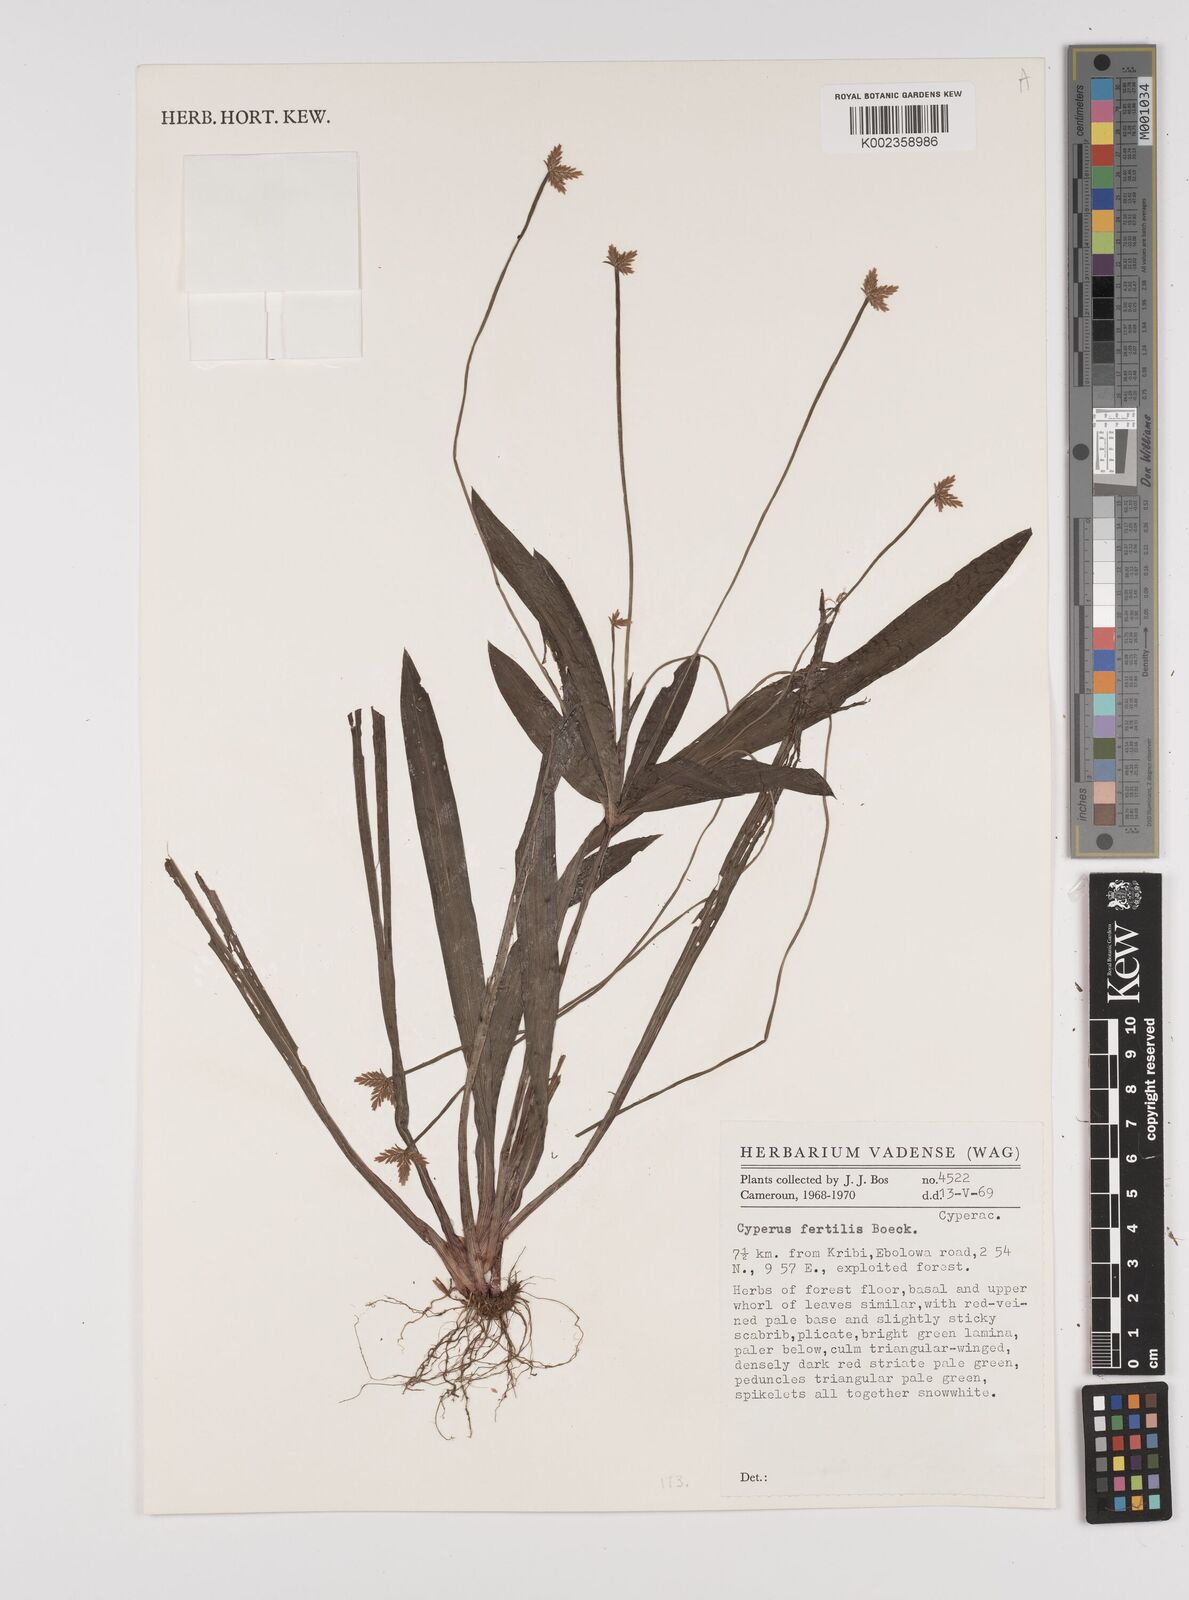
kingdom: Plantae
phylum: Tracheophyta
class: Liliopsida
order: Poales
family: Cyperaceae
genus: Cyperus
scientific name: Cyperus fertilis
